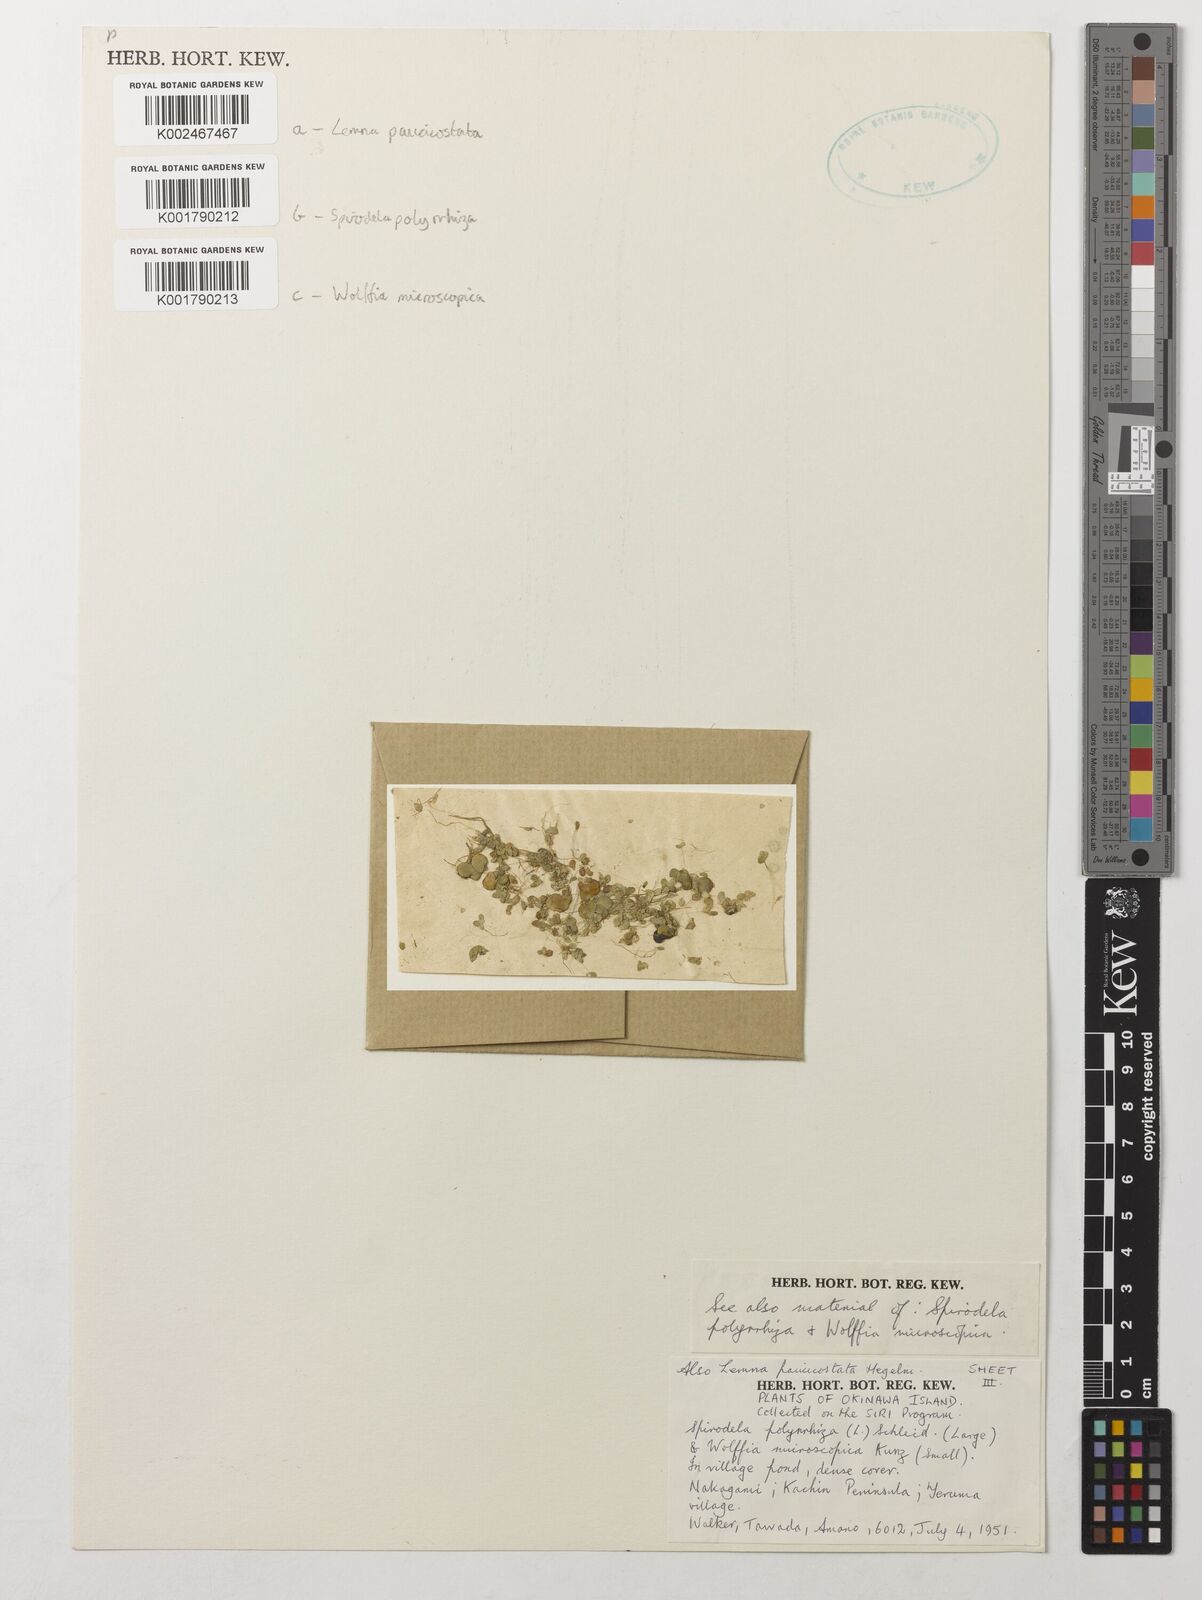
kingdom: Plantae
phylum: Tracheophyta
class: Liliopsida
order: Alismatales
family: Araceae
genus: Wolffia
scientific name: Wolffia microscopica
